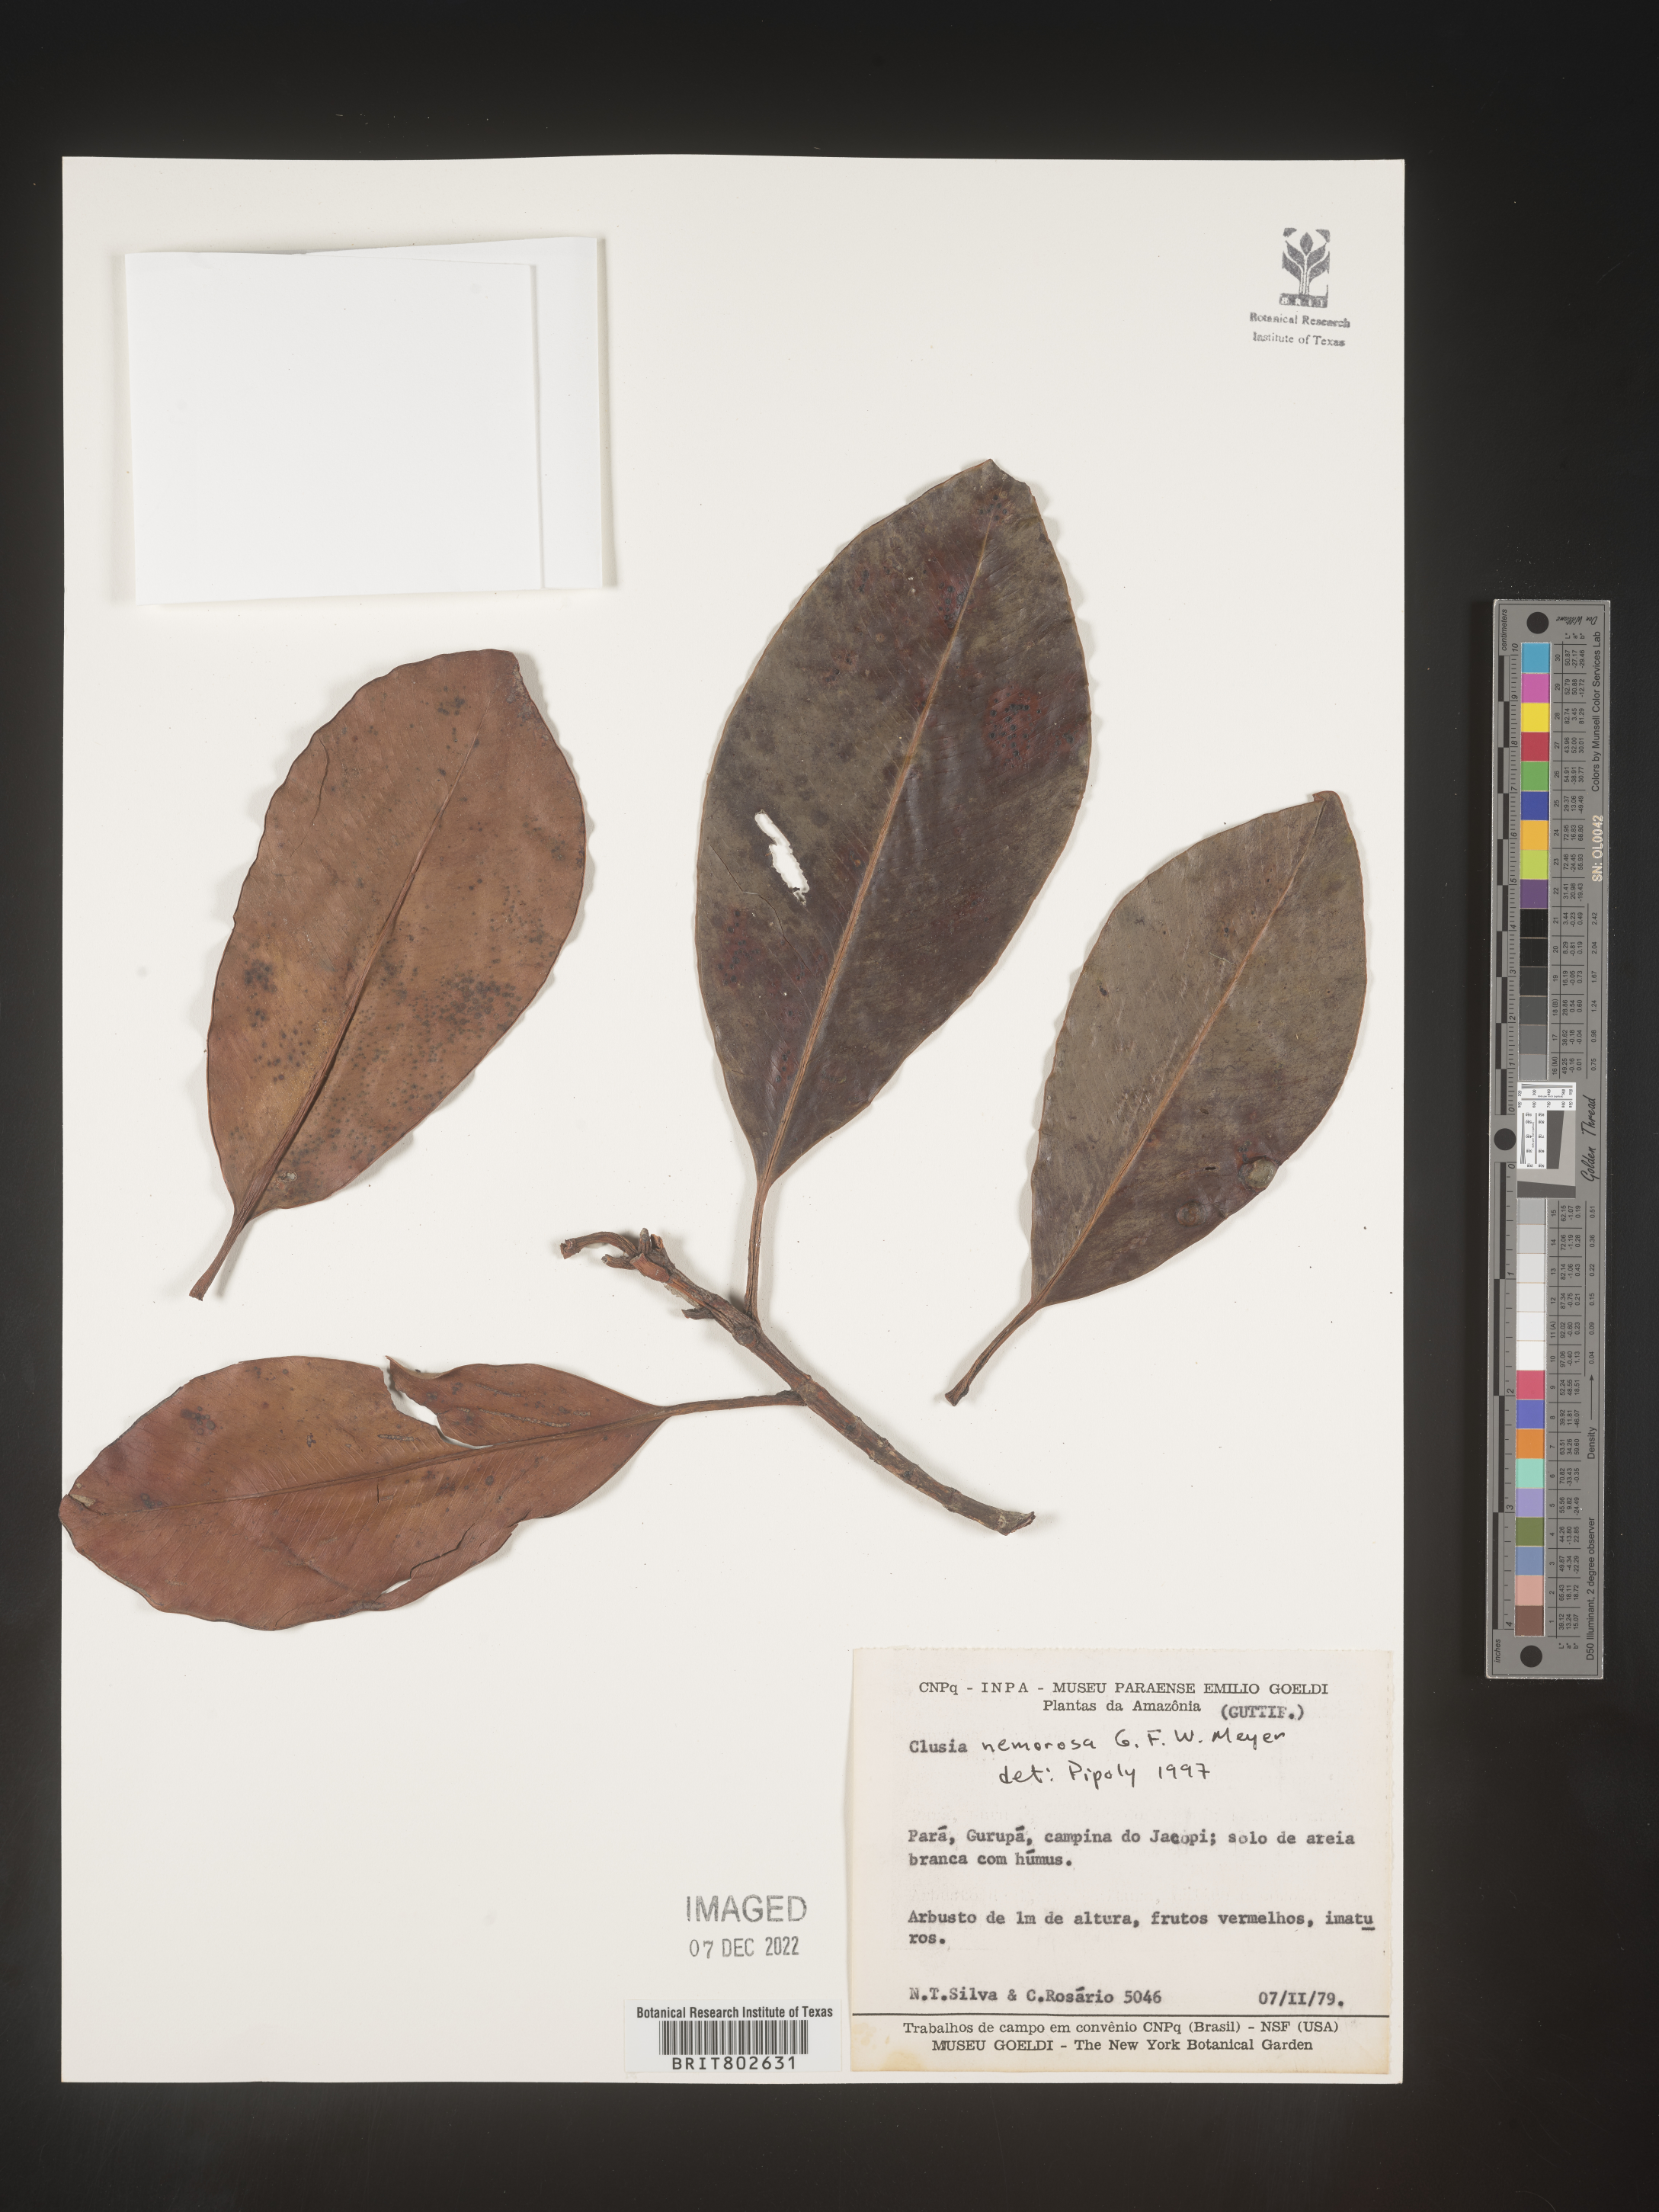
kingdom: Plantae
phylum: Tracheophyta
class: Magnoliopsida
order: Malpighiales
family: Clusiaceae
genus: Clusia
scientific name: Clusia nemorosa
